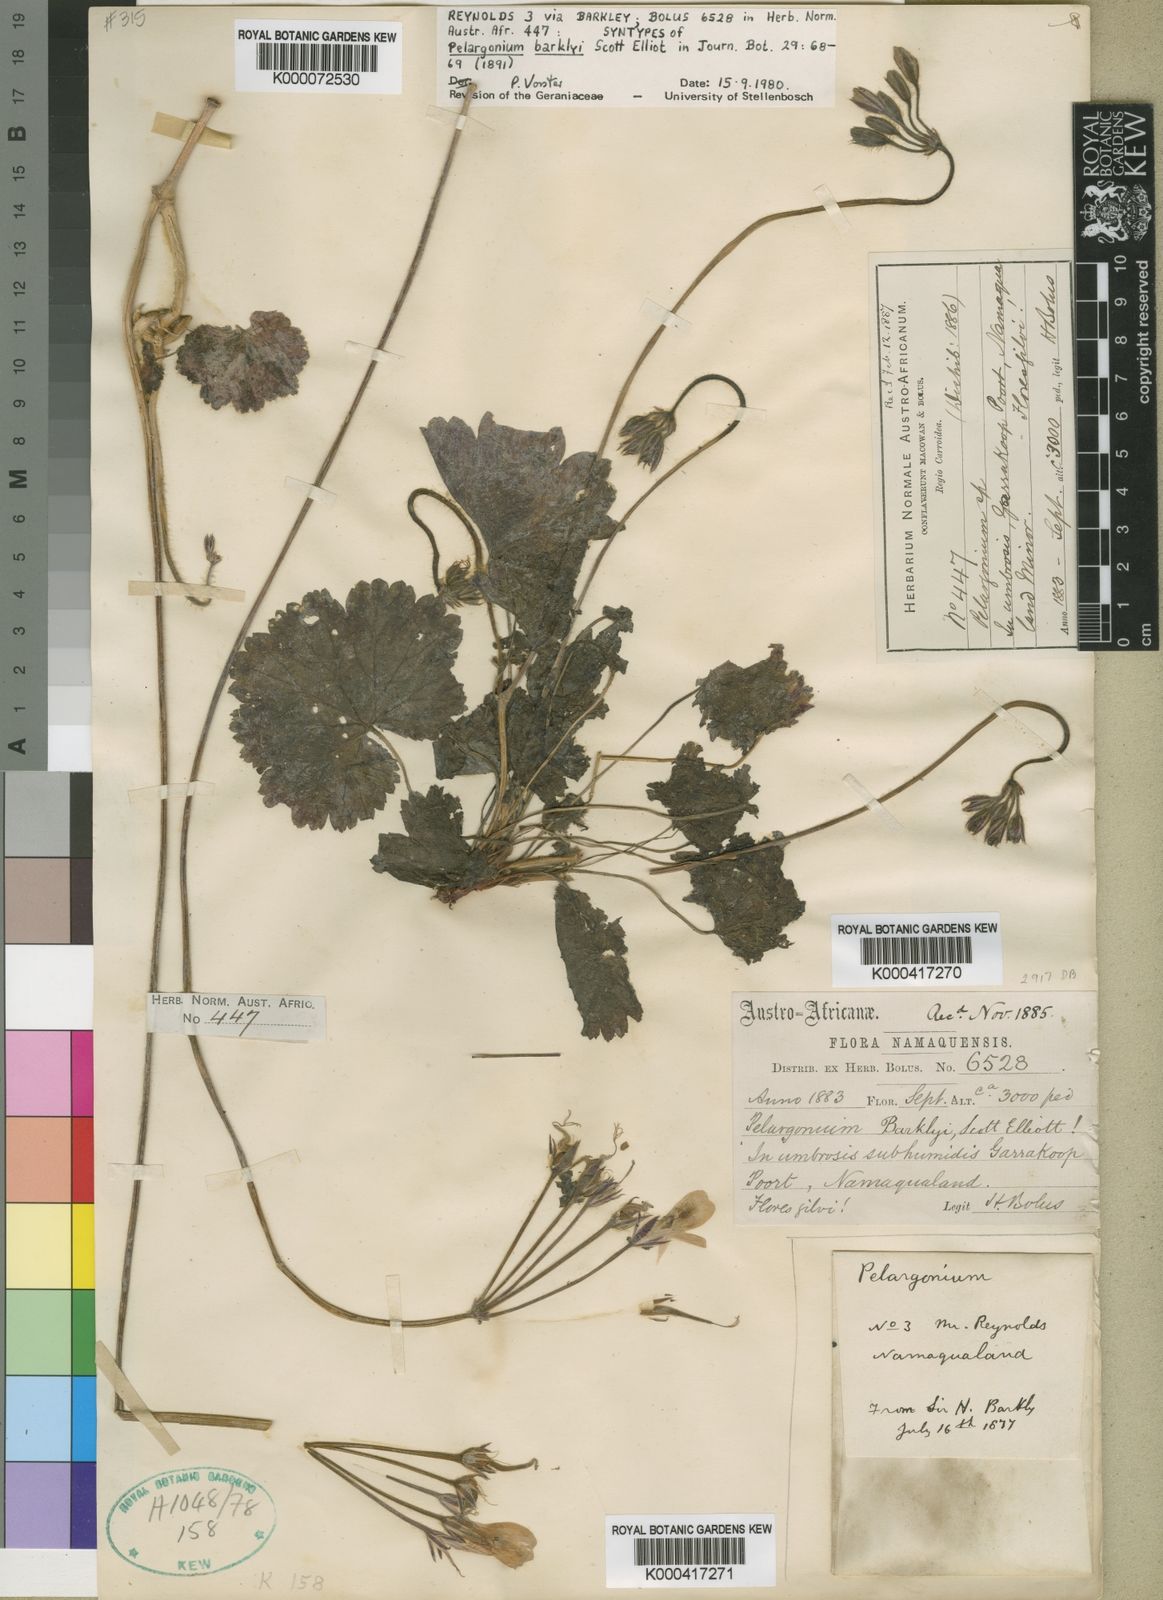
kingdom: Plantae
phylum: Tracheophyta
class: Magnoliopsida
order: Geraniales
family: Geraniaceae
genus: Pelargonium
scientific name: Pelargonium barklyi
